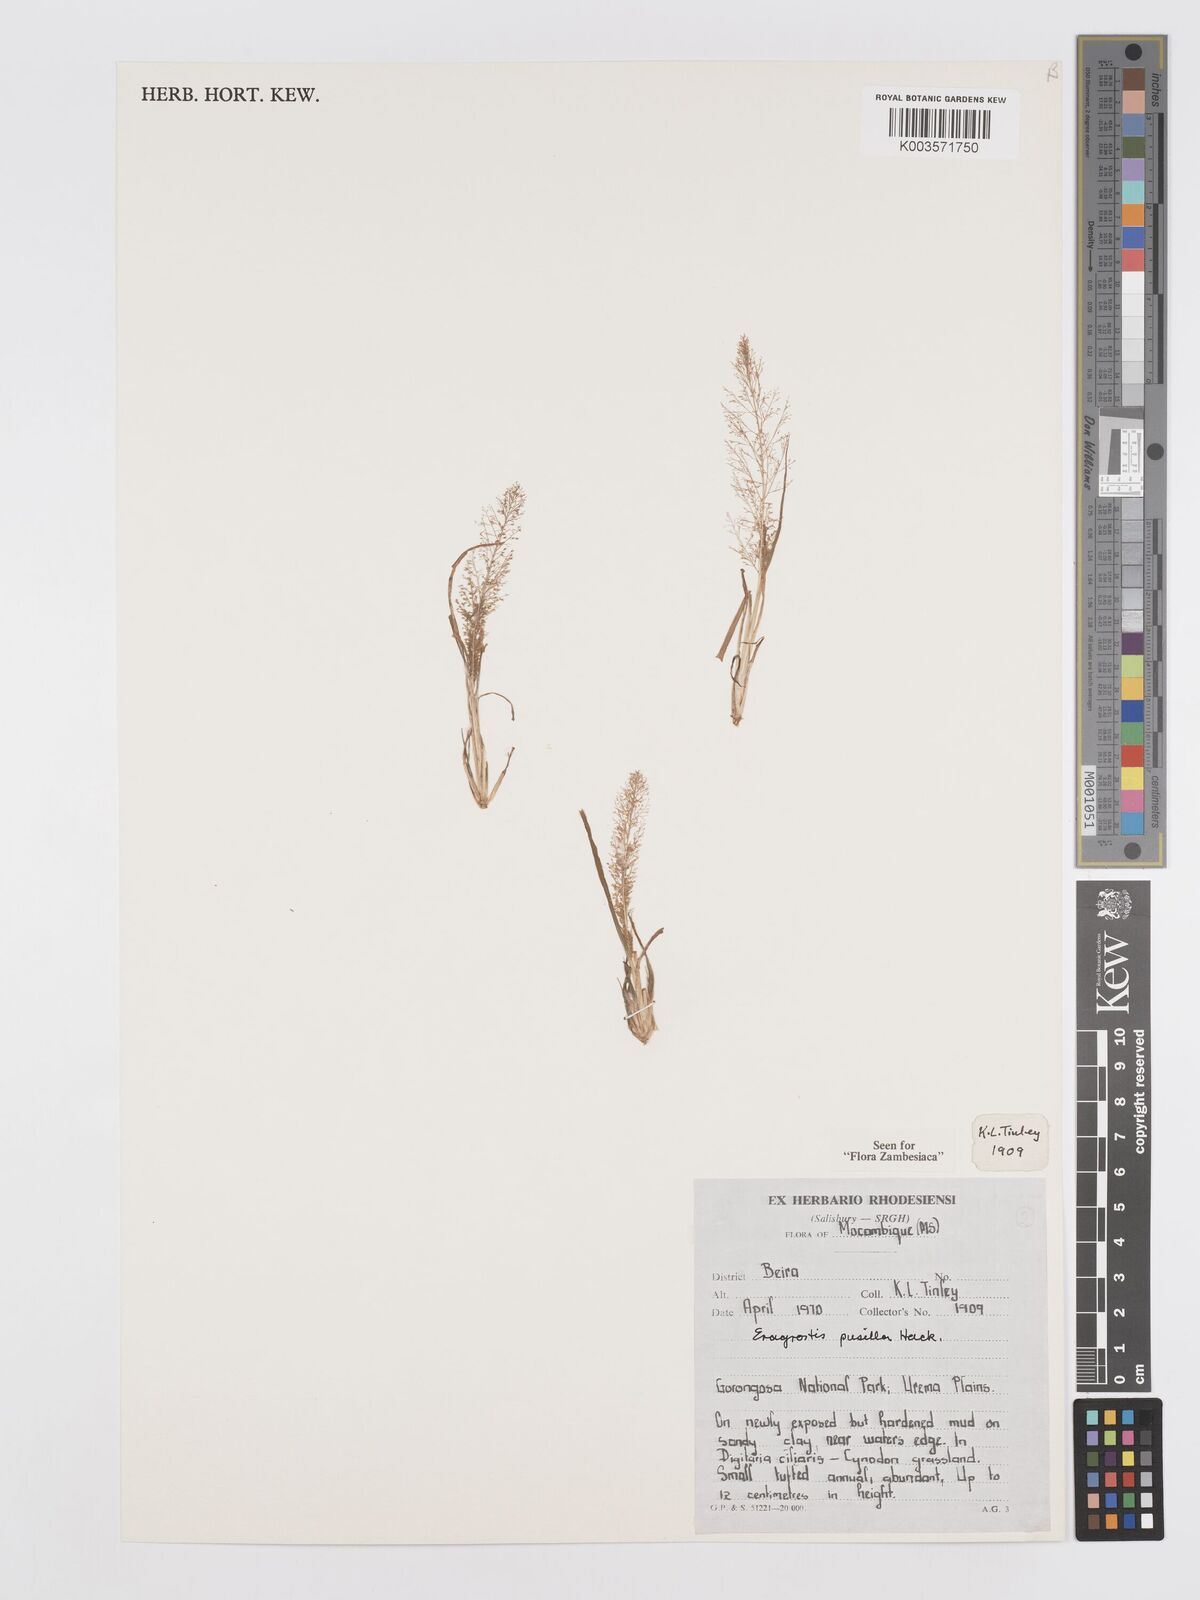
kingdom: Plantae
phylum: Tracheophyta
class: Liliopsida
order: Poales
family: Poaceae
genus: Eragrostis
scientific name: Eragrostis pusilla
